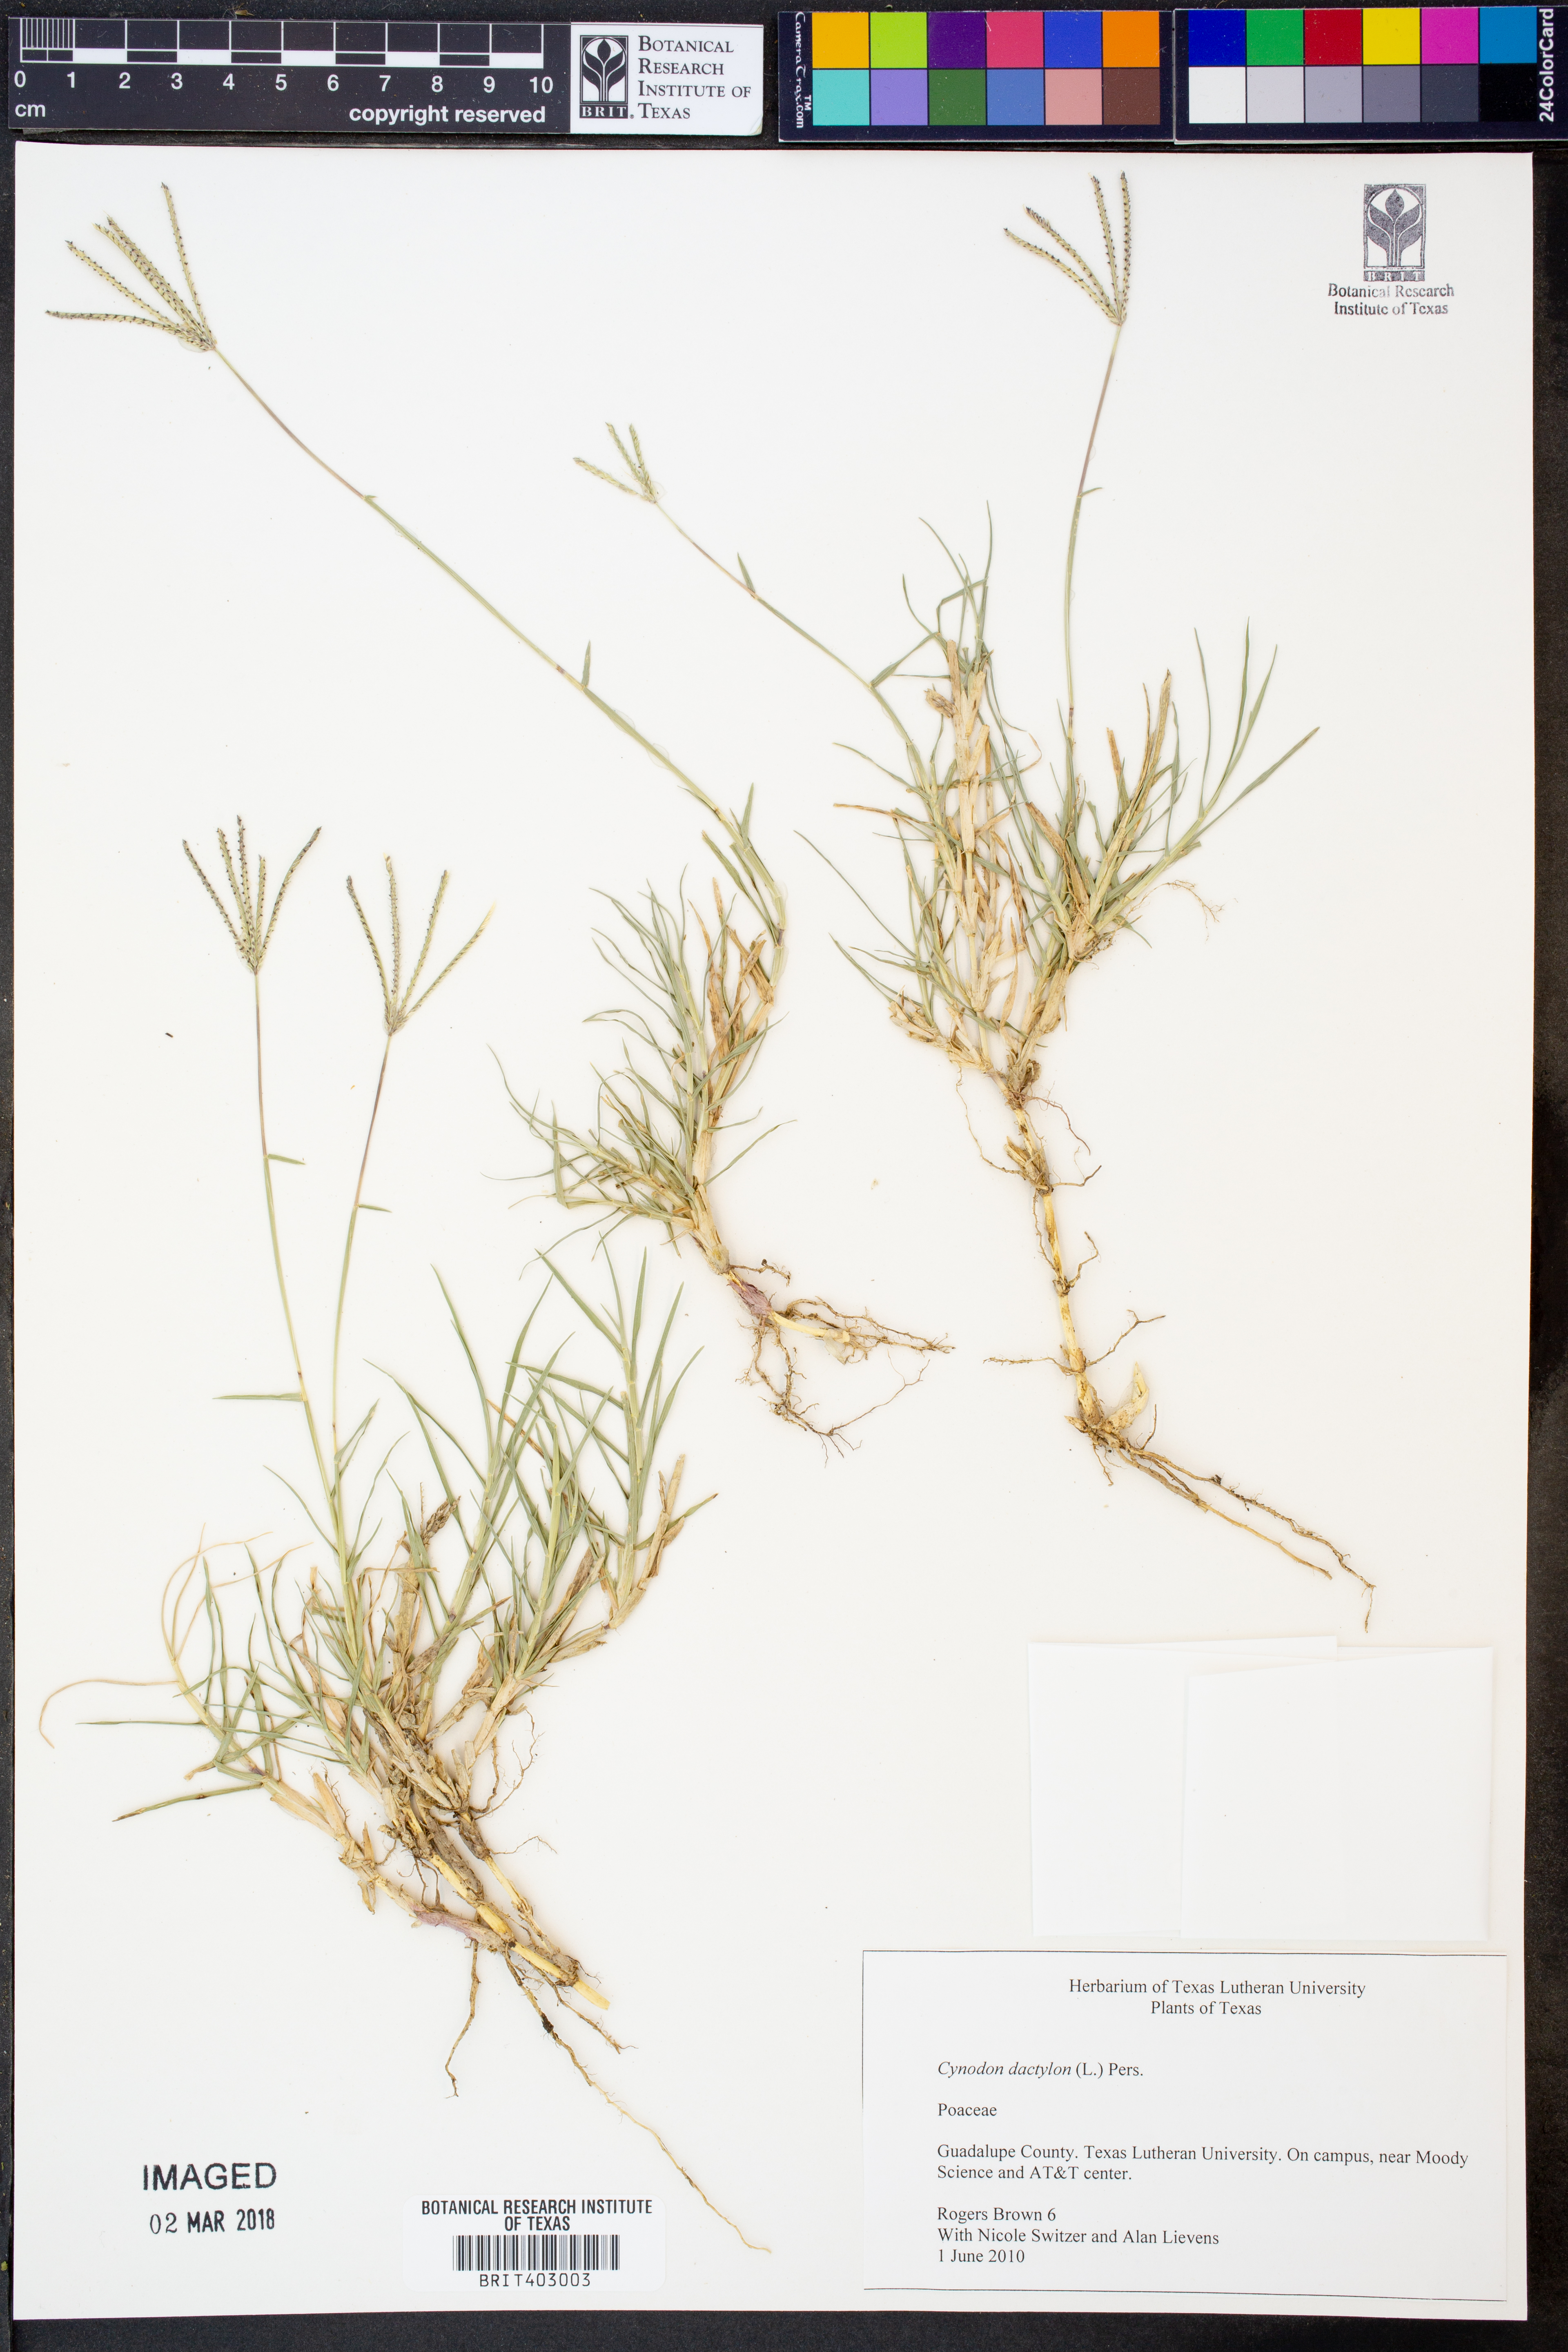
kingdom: Plantae
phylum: Tracheophyta
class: Liliopsida
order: Poales
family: Poaceae
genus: Cynodon
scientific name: Cynodon dactylon
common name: Bermuda grass
